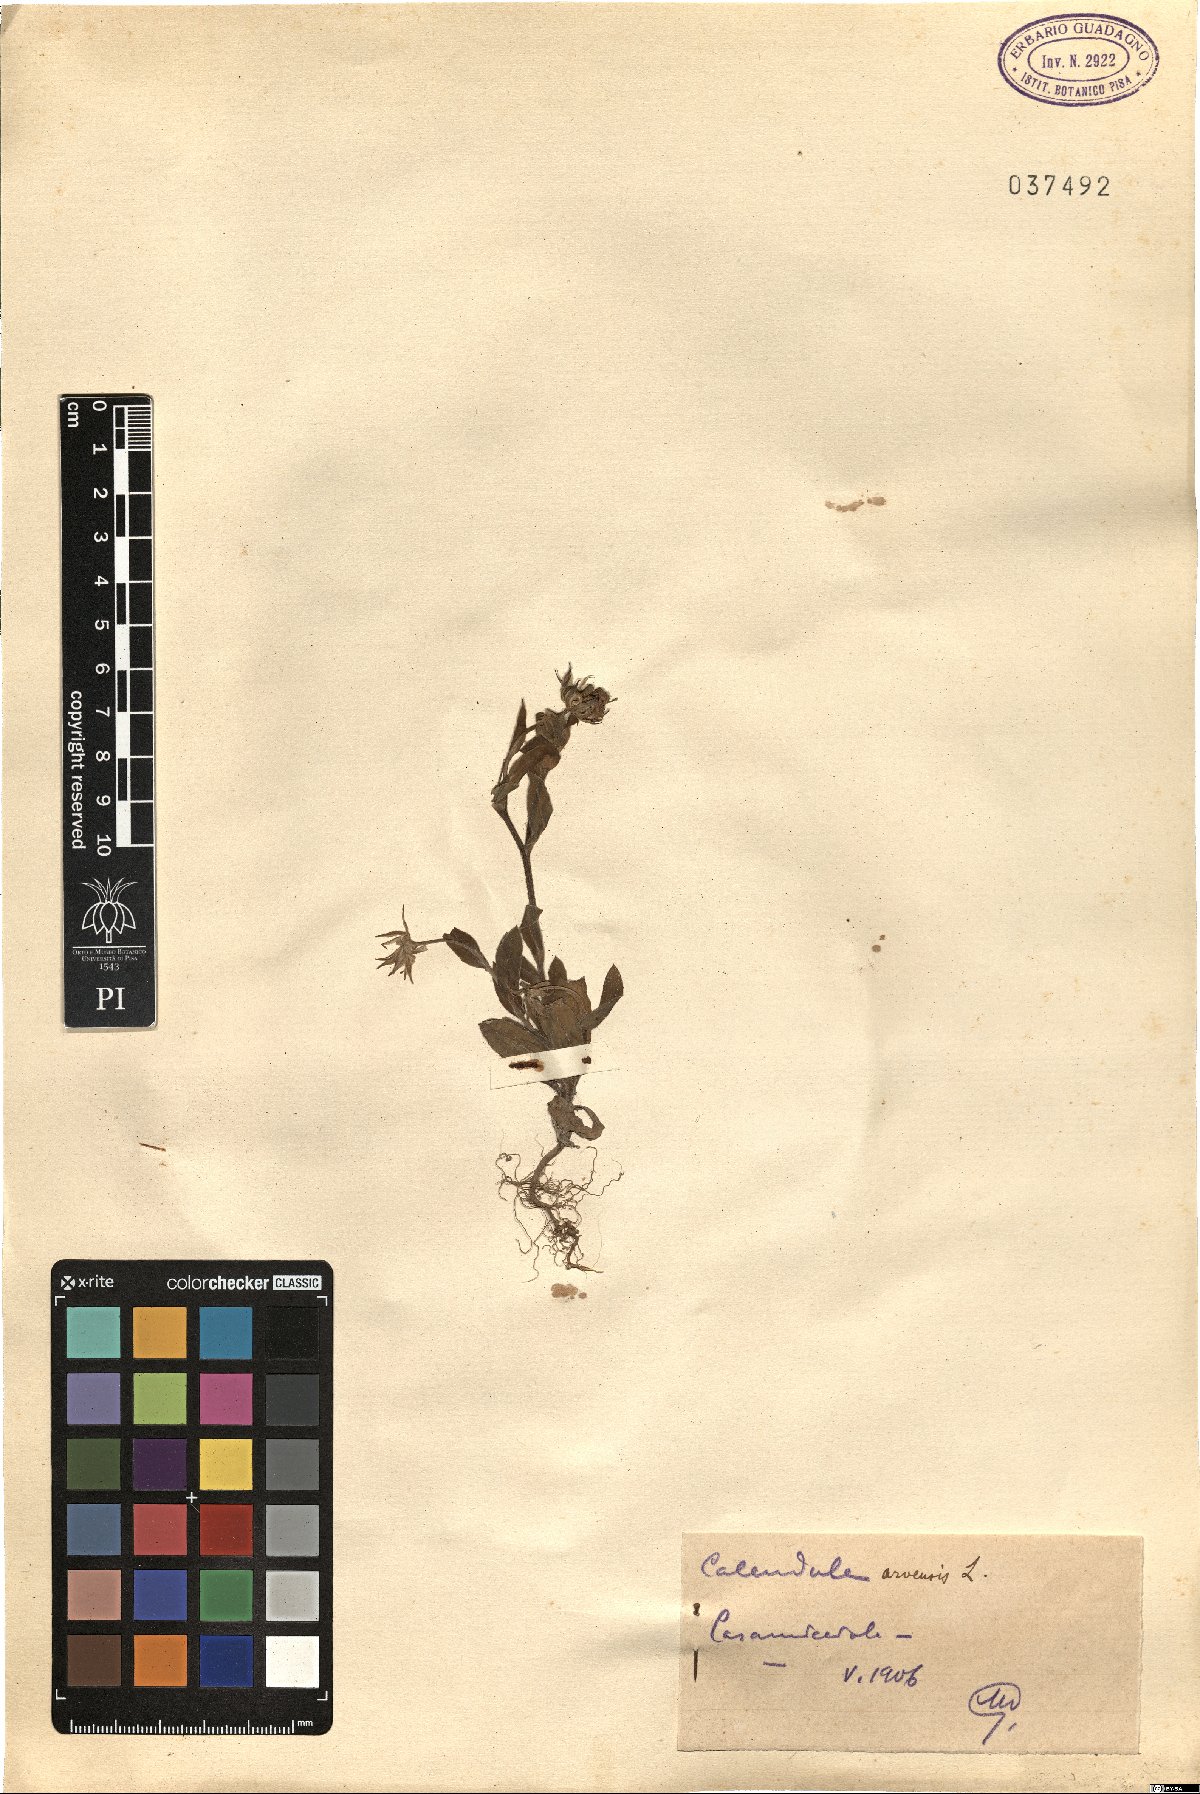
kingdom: Plantae
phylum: Tracheophyta
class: Magnoliopsida
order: Asterales
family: Asteraceae
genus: Calendula
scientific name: Calendula arvensis
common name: Field marigold
